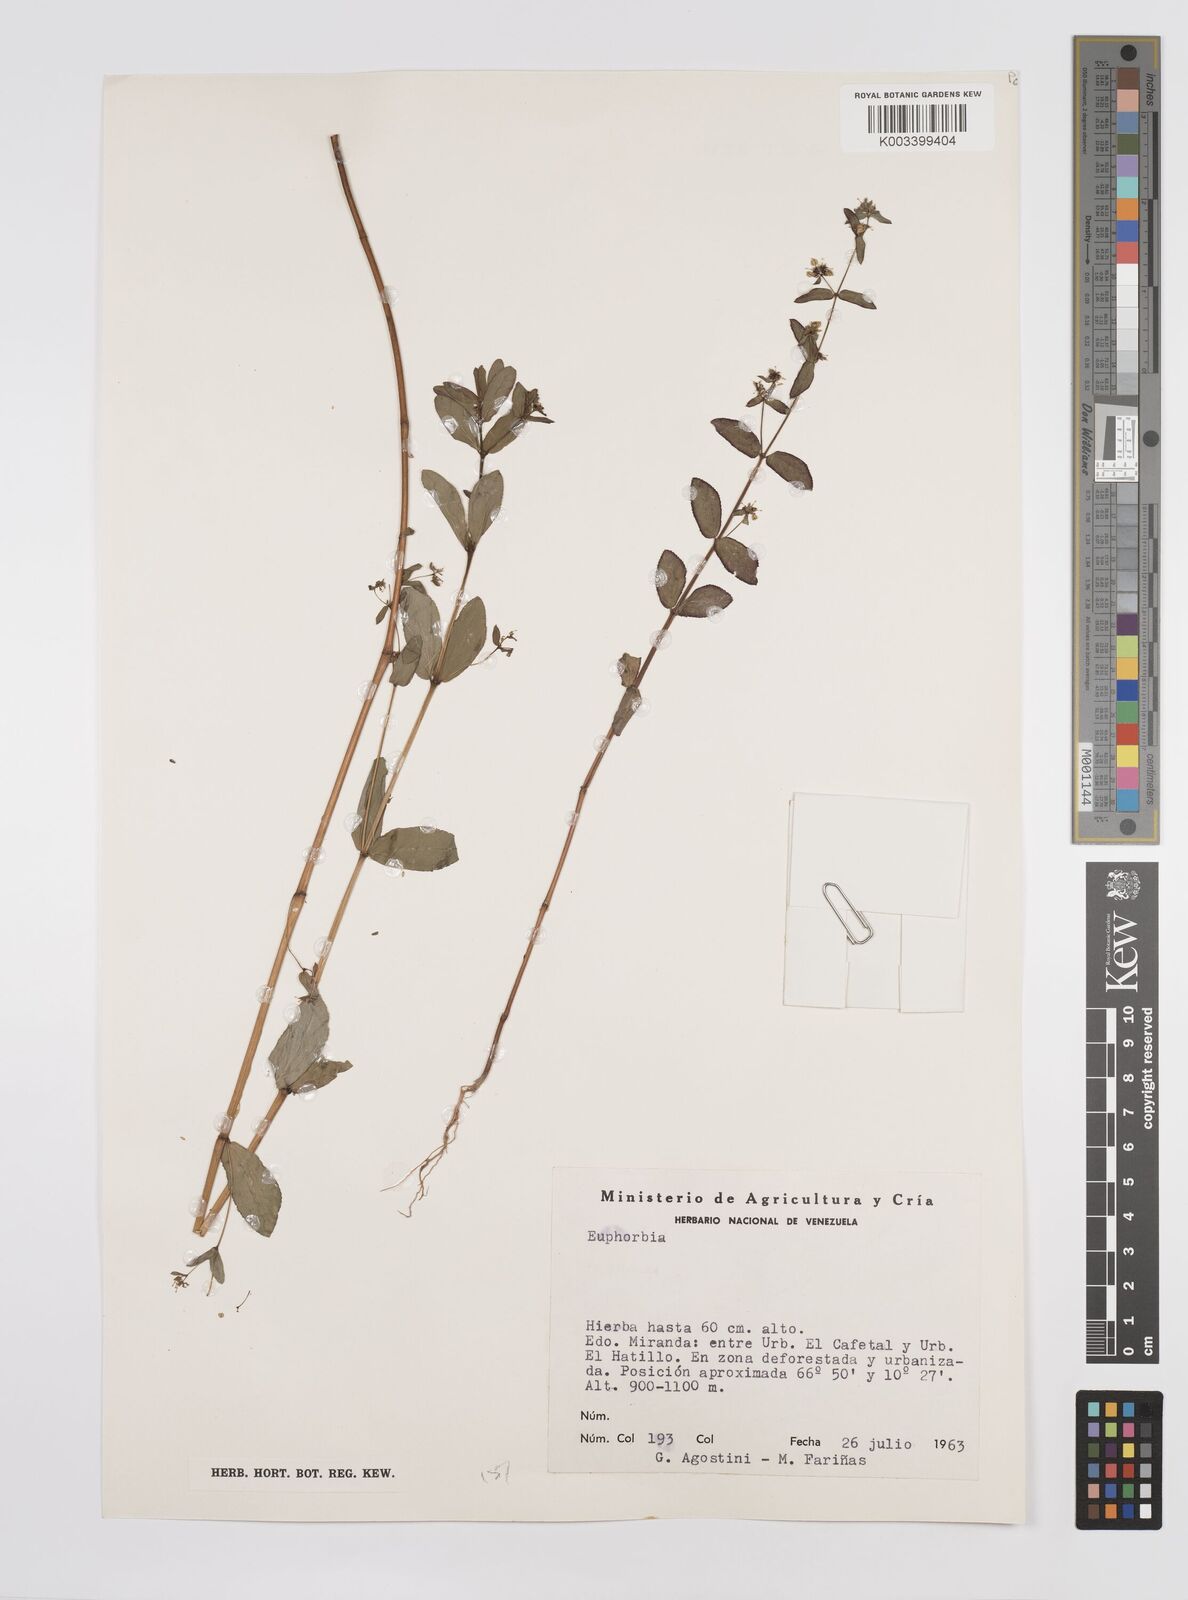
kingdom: Plantae
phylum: Tracheophyta
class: Magnoliopsida
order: Malpighiales
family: Euphorbiaceae
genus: Euphorbia
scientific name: Euphorbia
